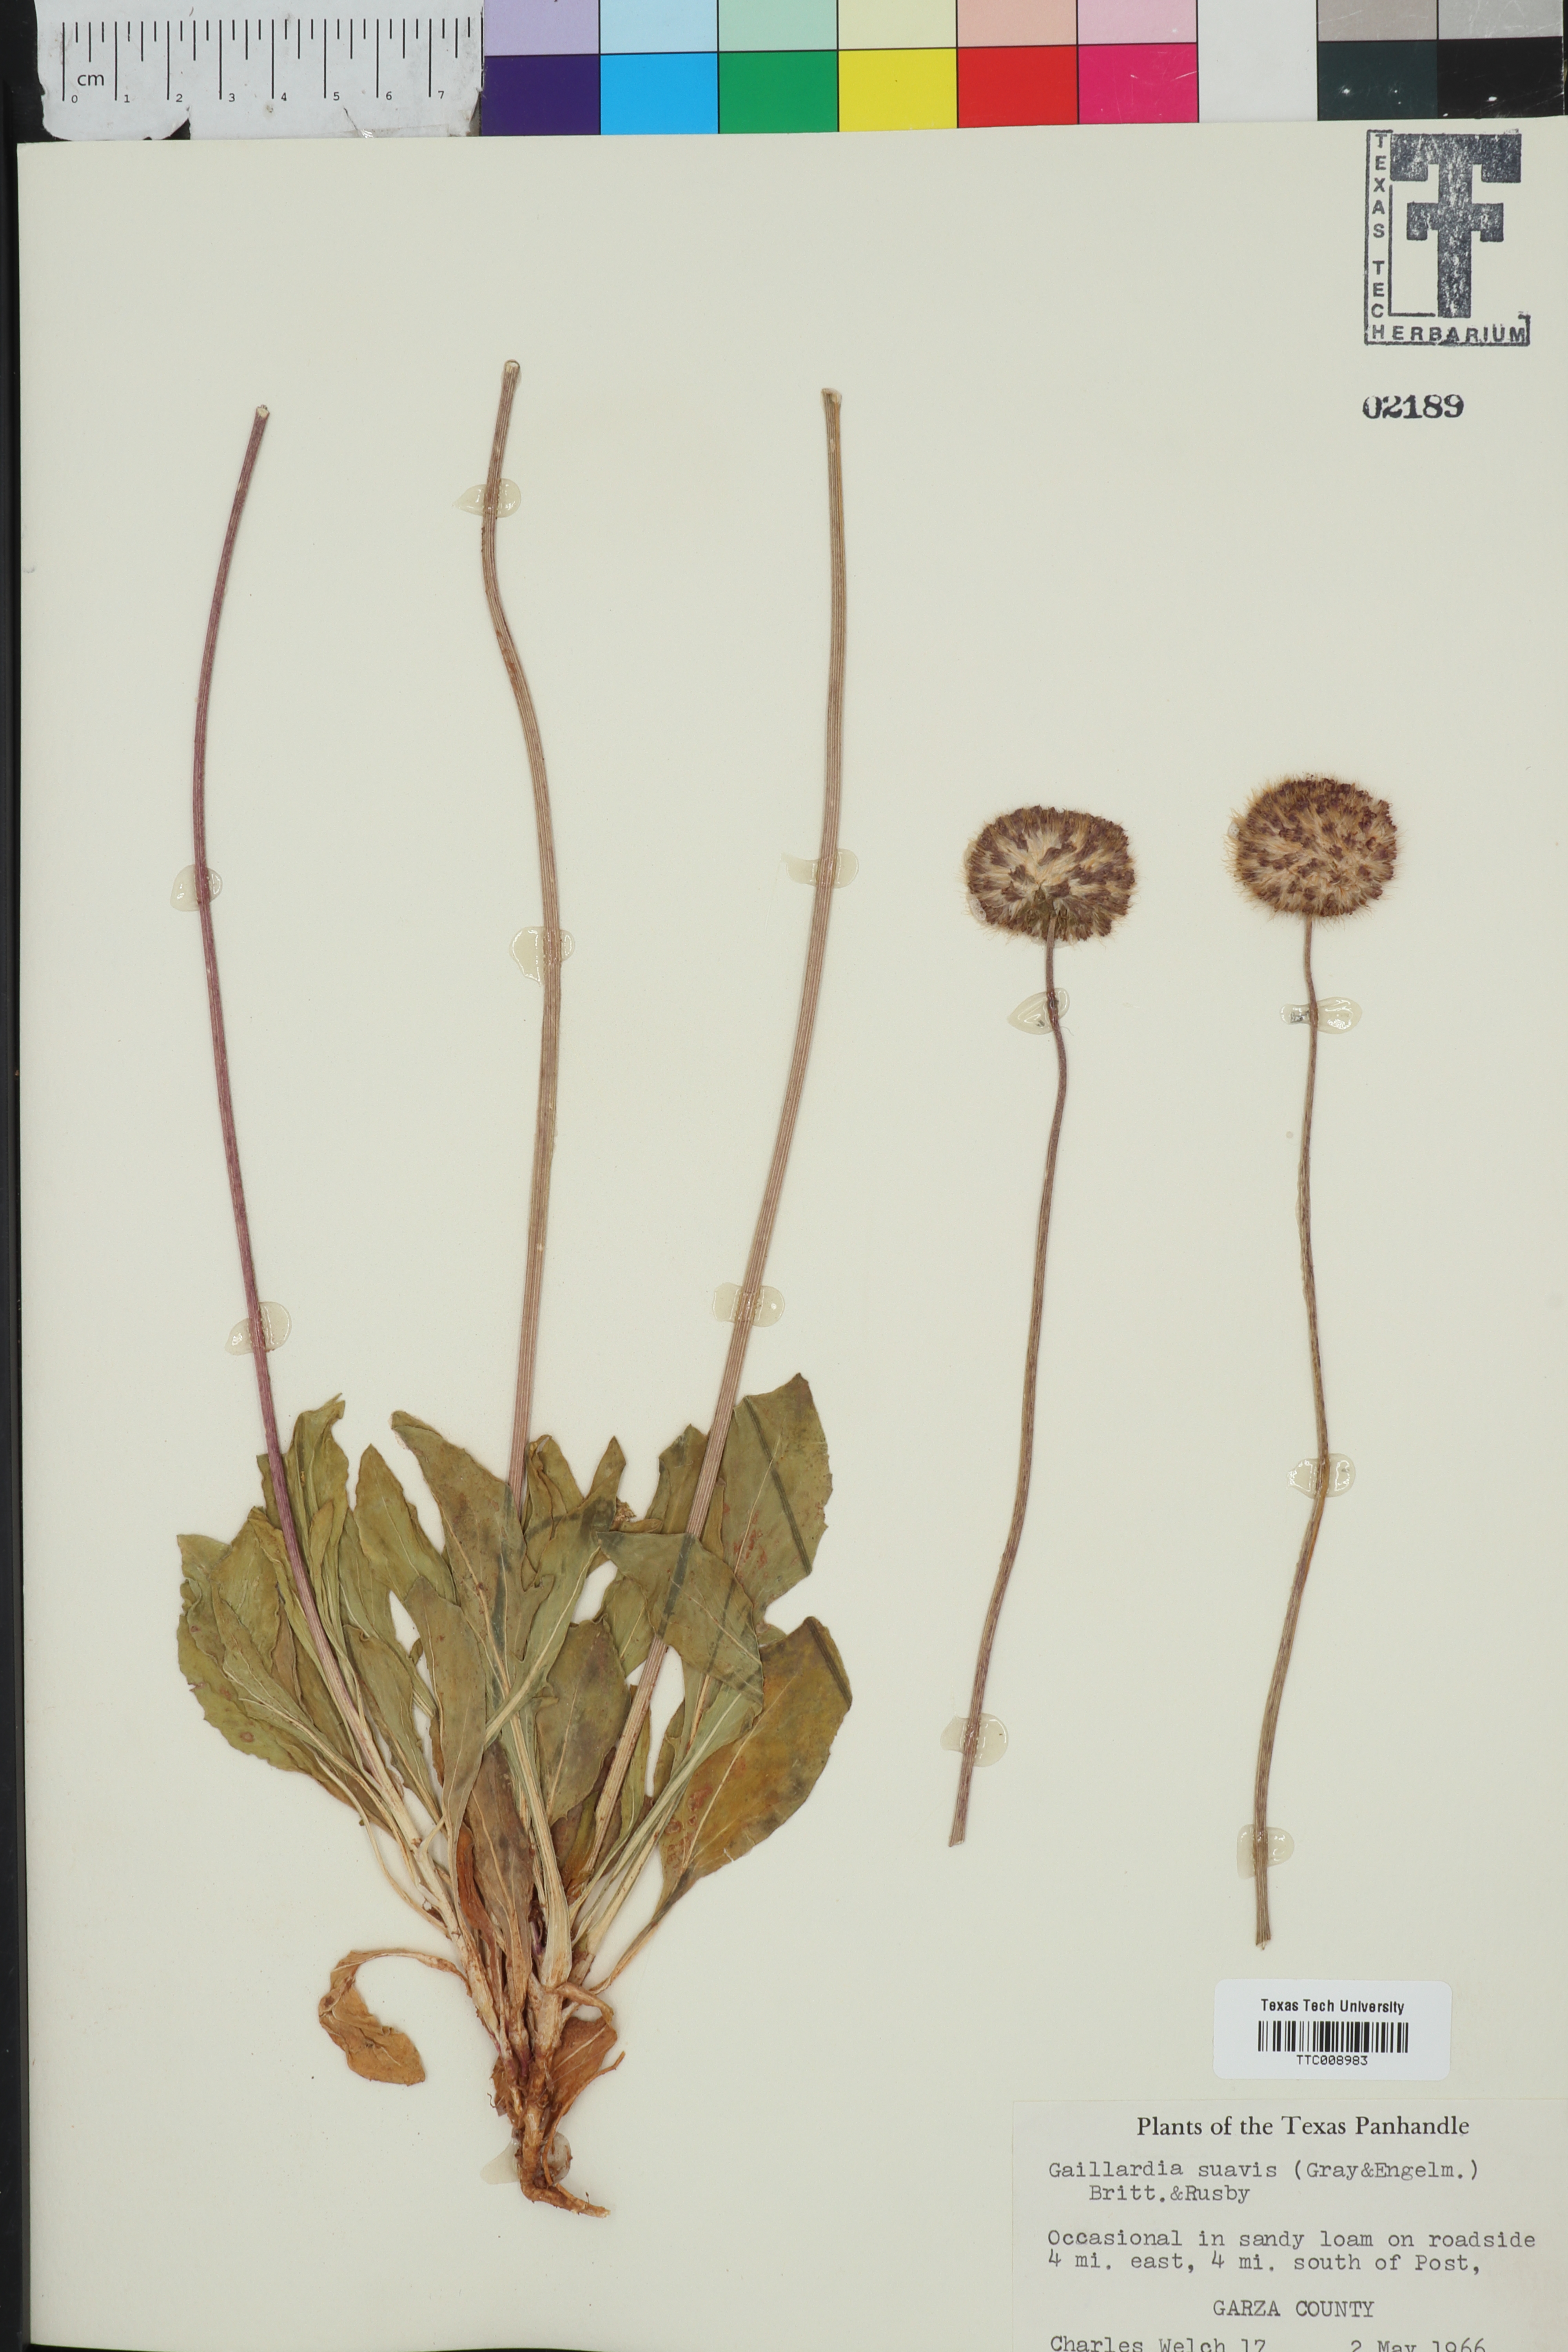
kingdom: Plantae
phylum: Tracheophyta
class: Magnoliopsida
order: Asterales
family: Asteraceae
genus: Gaillardia
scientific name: Gaillardia suavis
